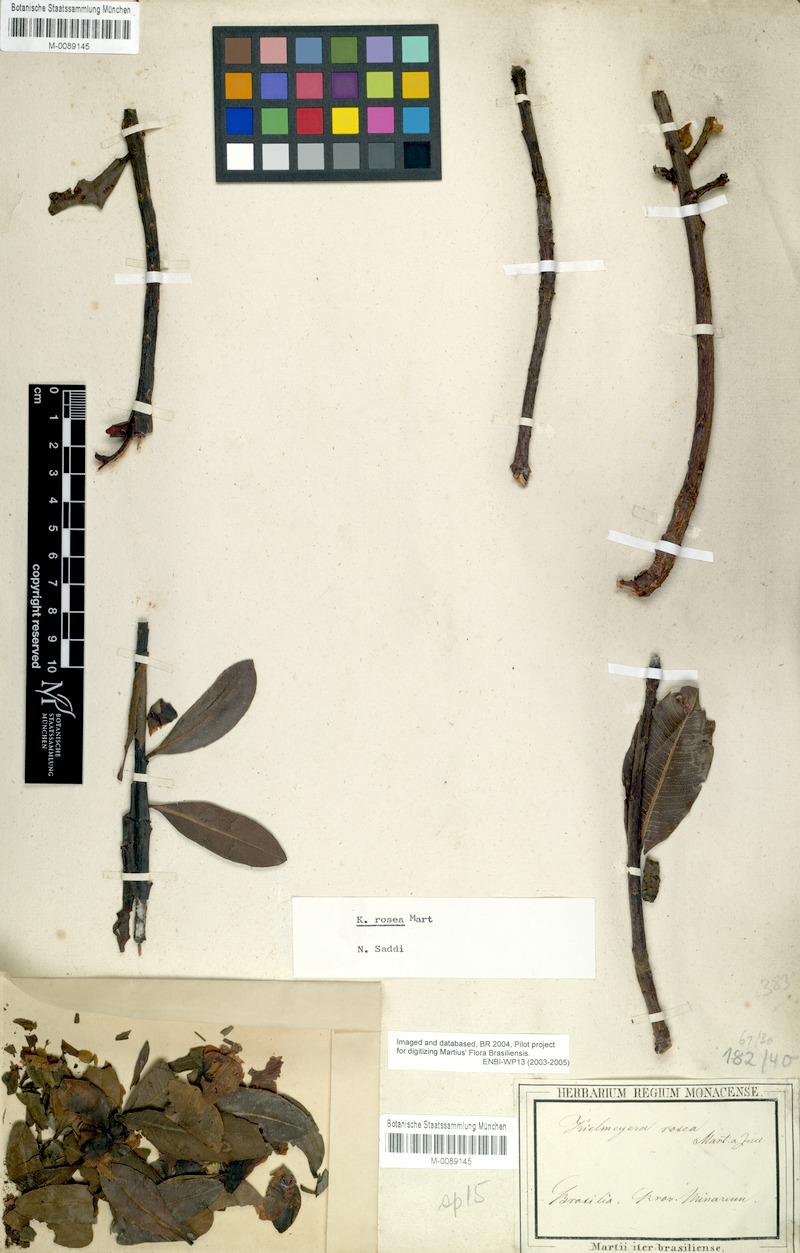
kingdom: Plantae
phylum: Tracheophyta
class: Magnoliopsida
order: Malpighiales
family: Calophyllaceae
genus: Kielmeyera
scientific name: Kielmeyera rosea
